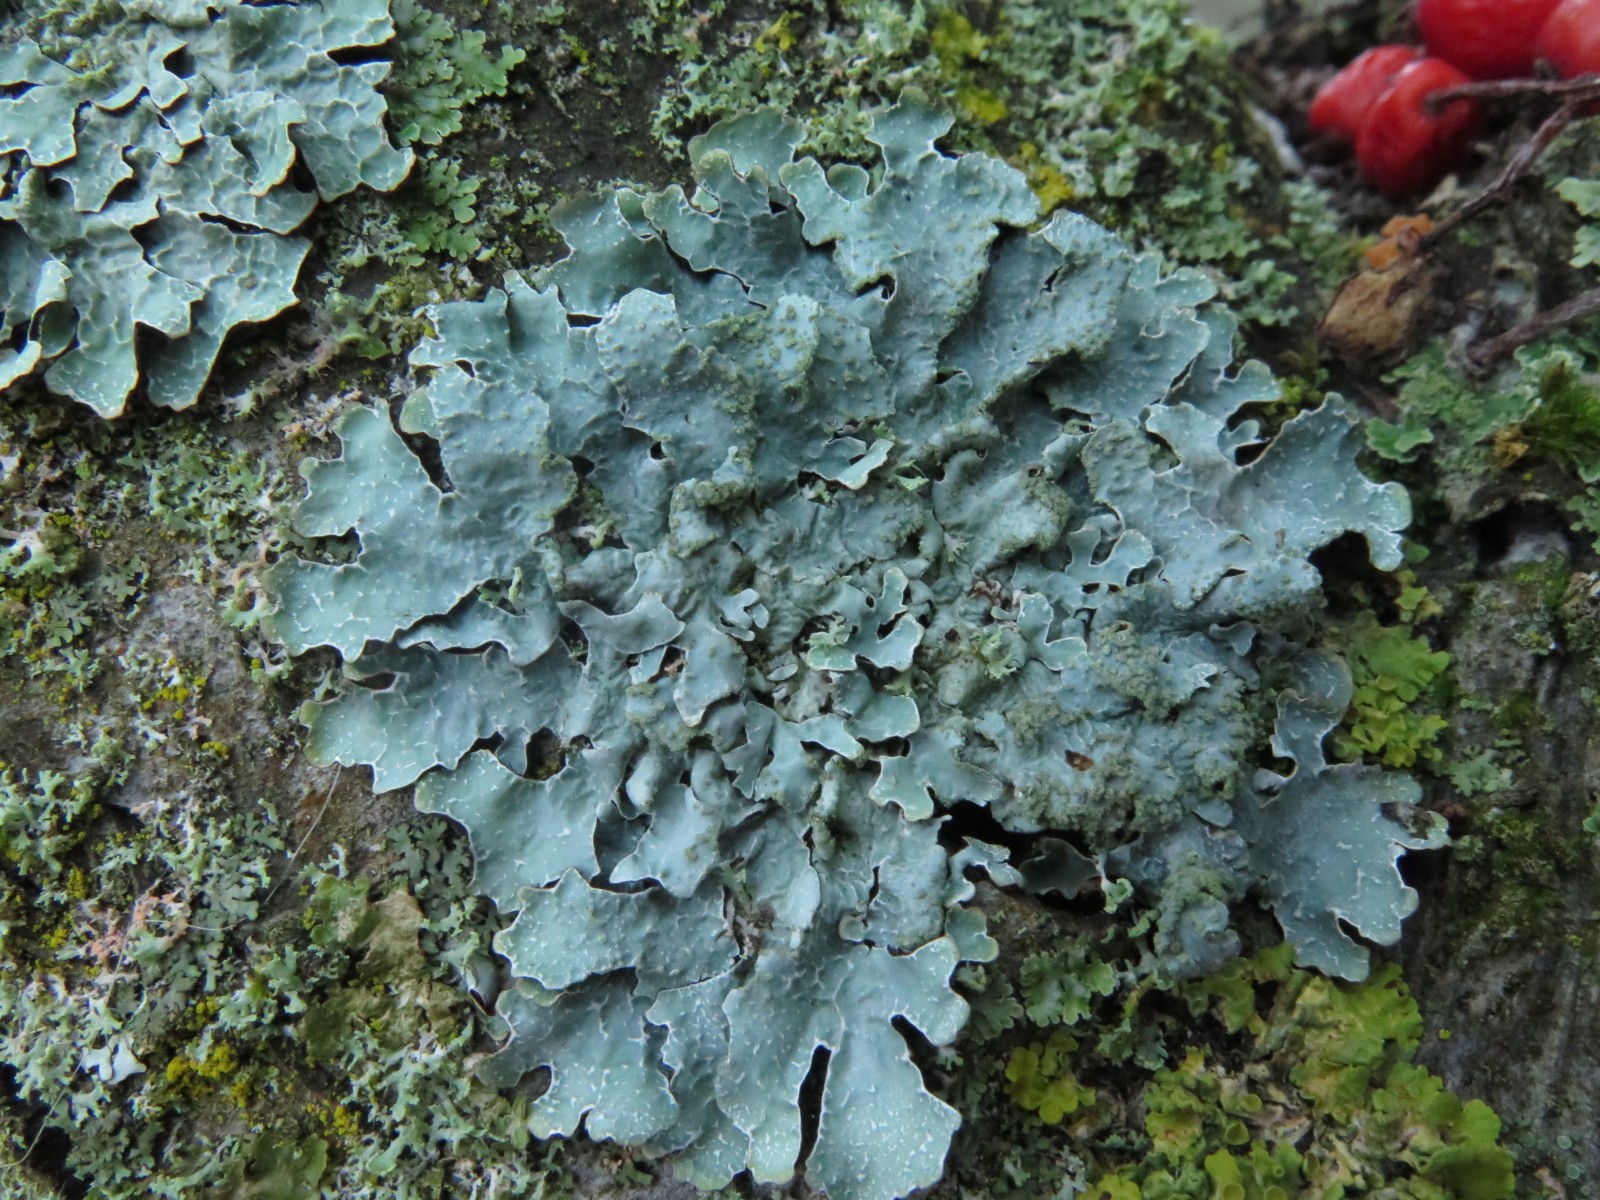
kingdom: Fungi
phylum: Ascomycota
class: Lecanoromycetes
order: Lecanorales
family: Parmeliaceae
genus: Parmelia
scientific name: Parmelia sulcata
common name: rynket skållav
